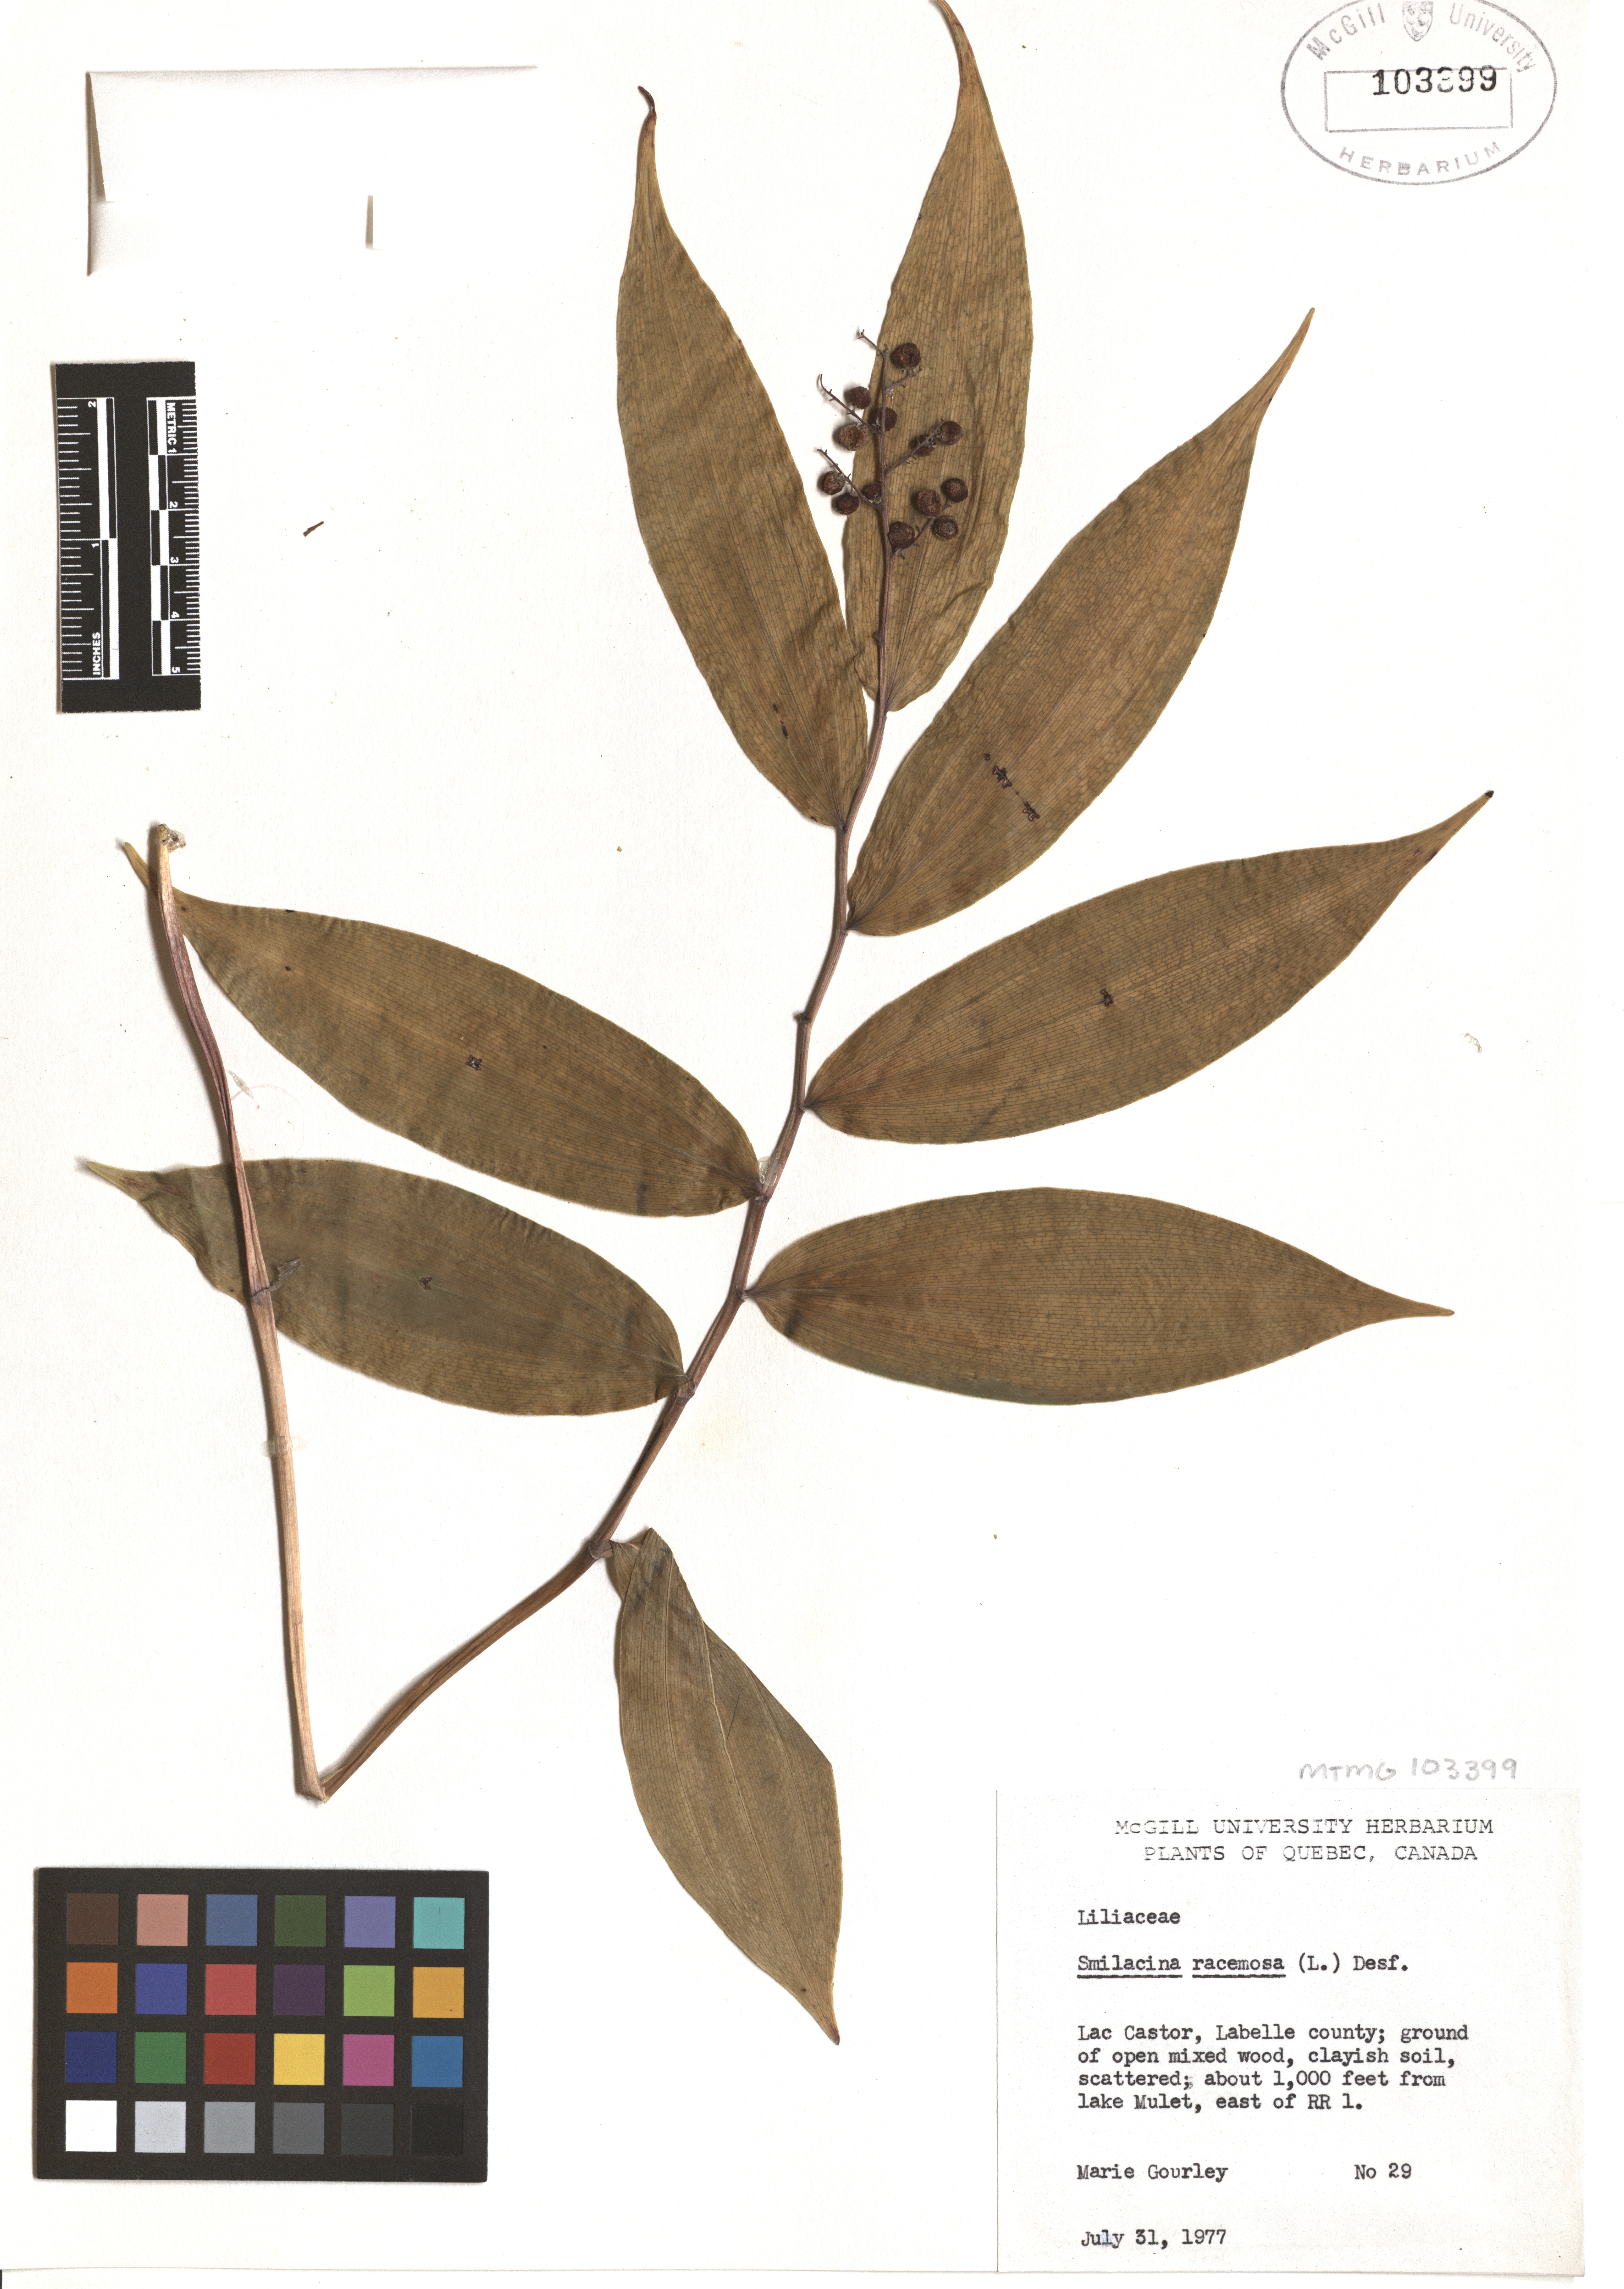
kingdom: Plantae
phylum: Tracheophyta
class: Liliopsida
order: Asparagales
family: Asparagaceae
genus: Maianthemum
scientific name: Maianthemum racemosum
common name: False spikenard
